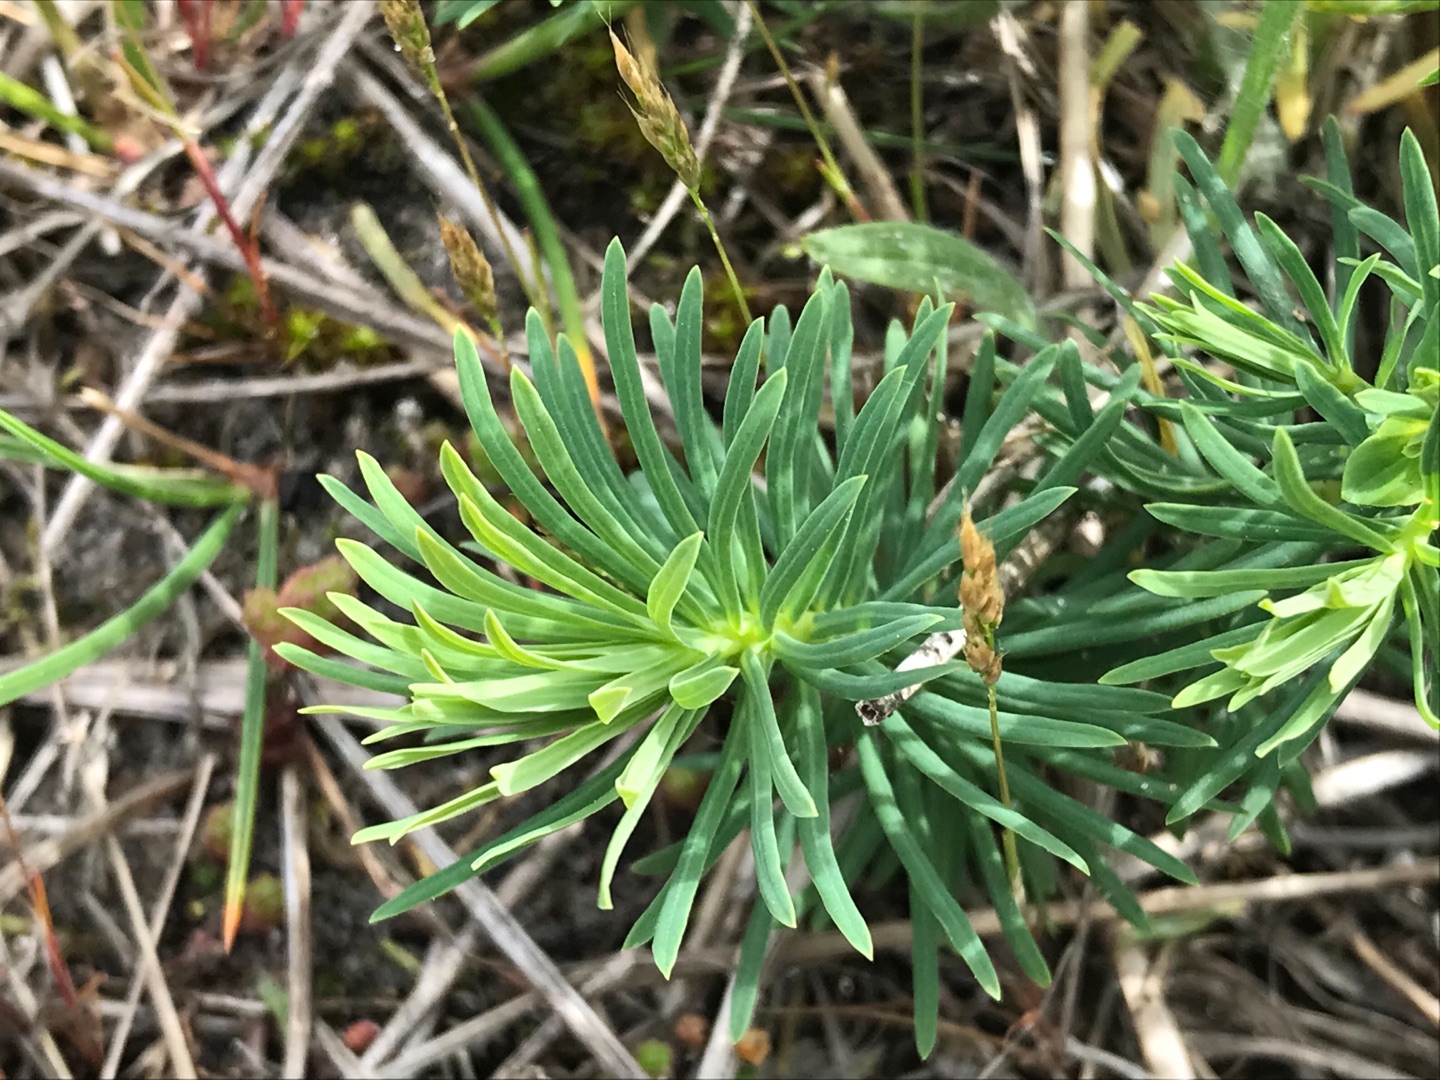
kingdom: Plantae
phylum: Tracheophyta
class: Magnoliopsida
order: Malpighiales
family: Euphorbiaceae
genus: Euphorbia
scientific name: Euphorbia cyparissias
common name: Cypres-vortemælk
